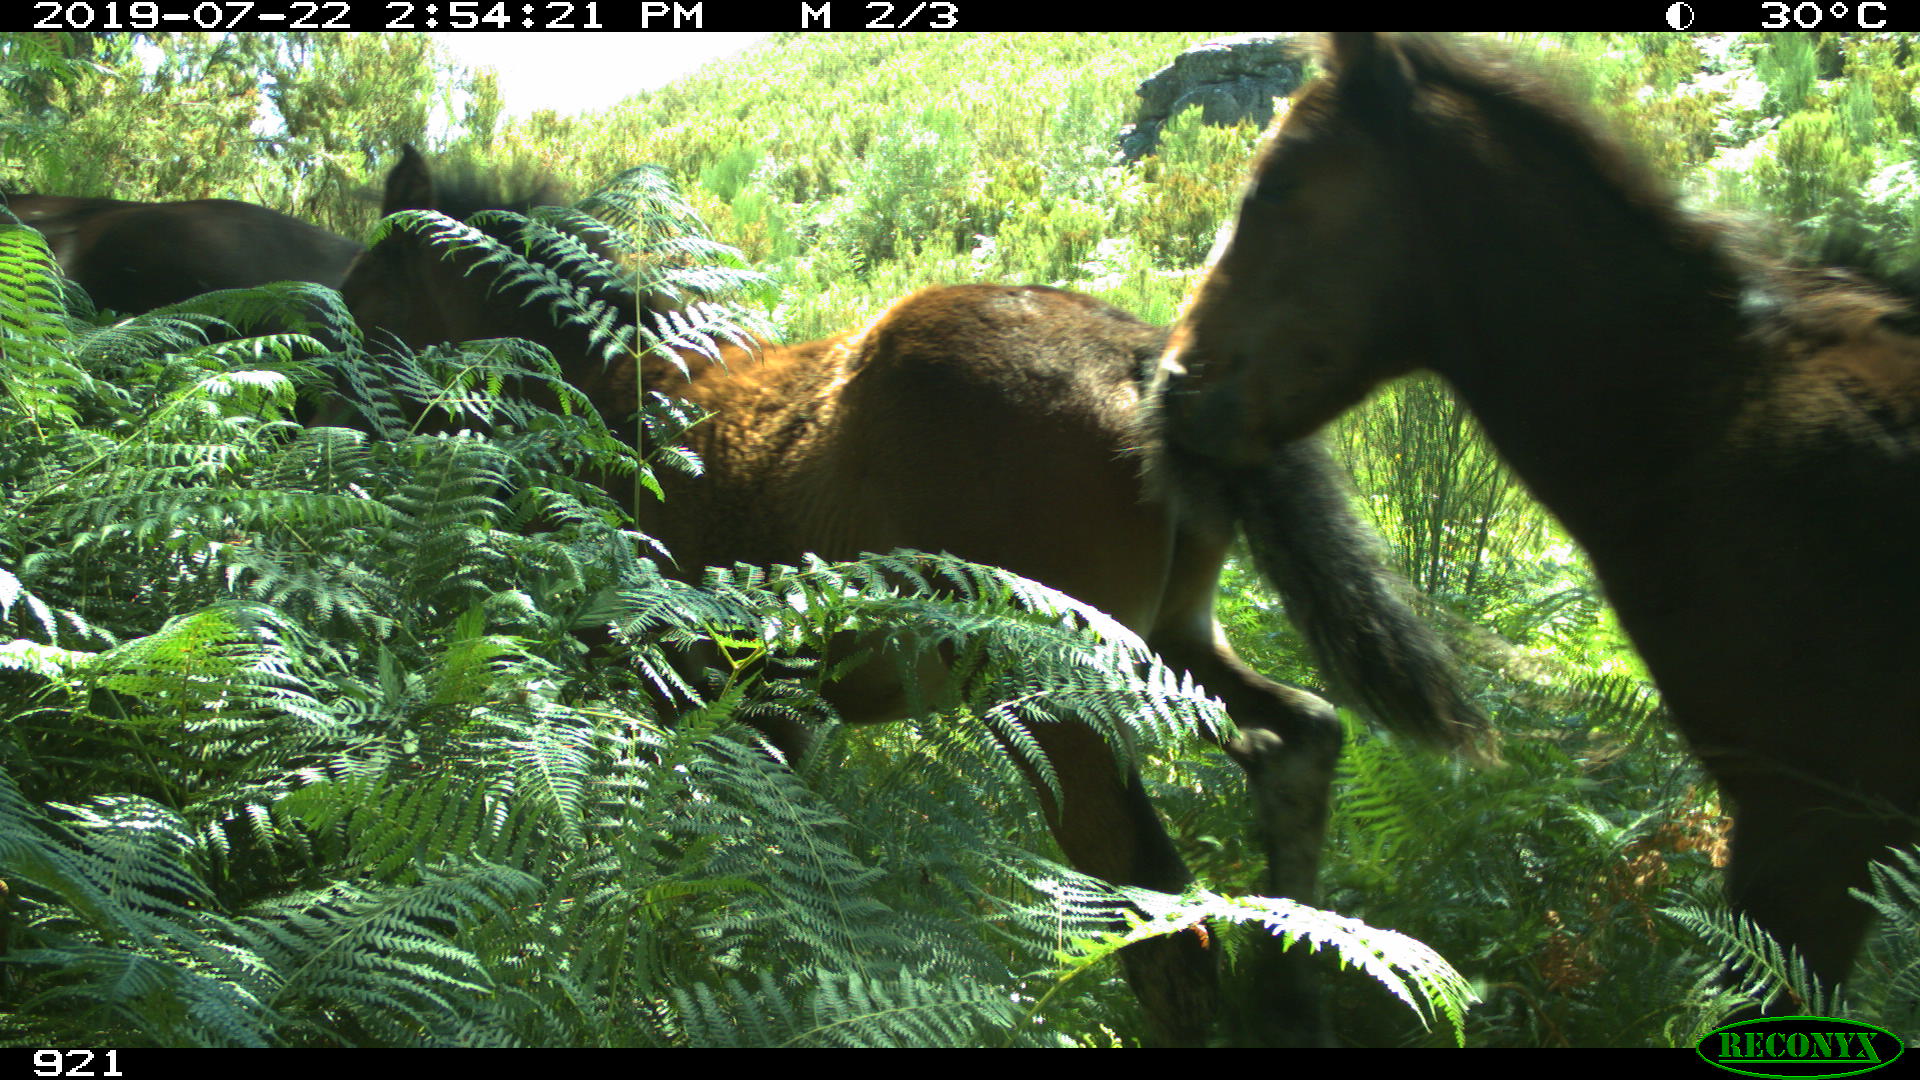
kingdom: Animalia
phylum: Chordata
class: Mammalia
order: Perissodactyla
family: Equidae
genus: Equus
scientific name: Equus caballus
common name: Horse
